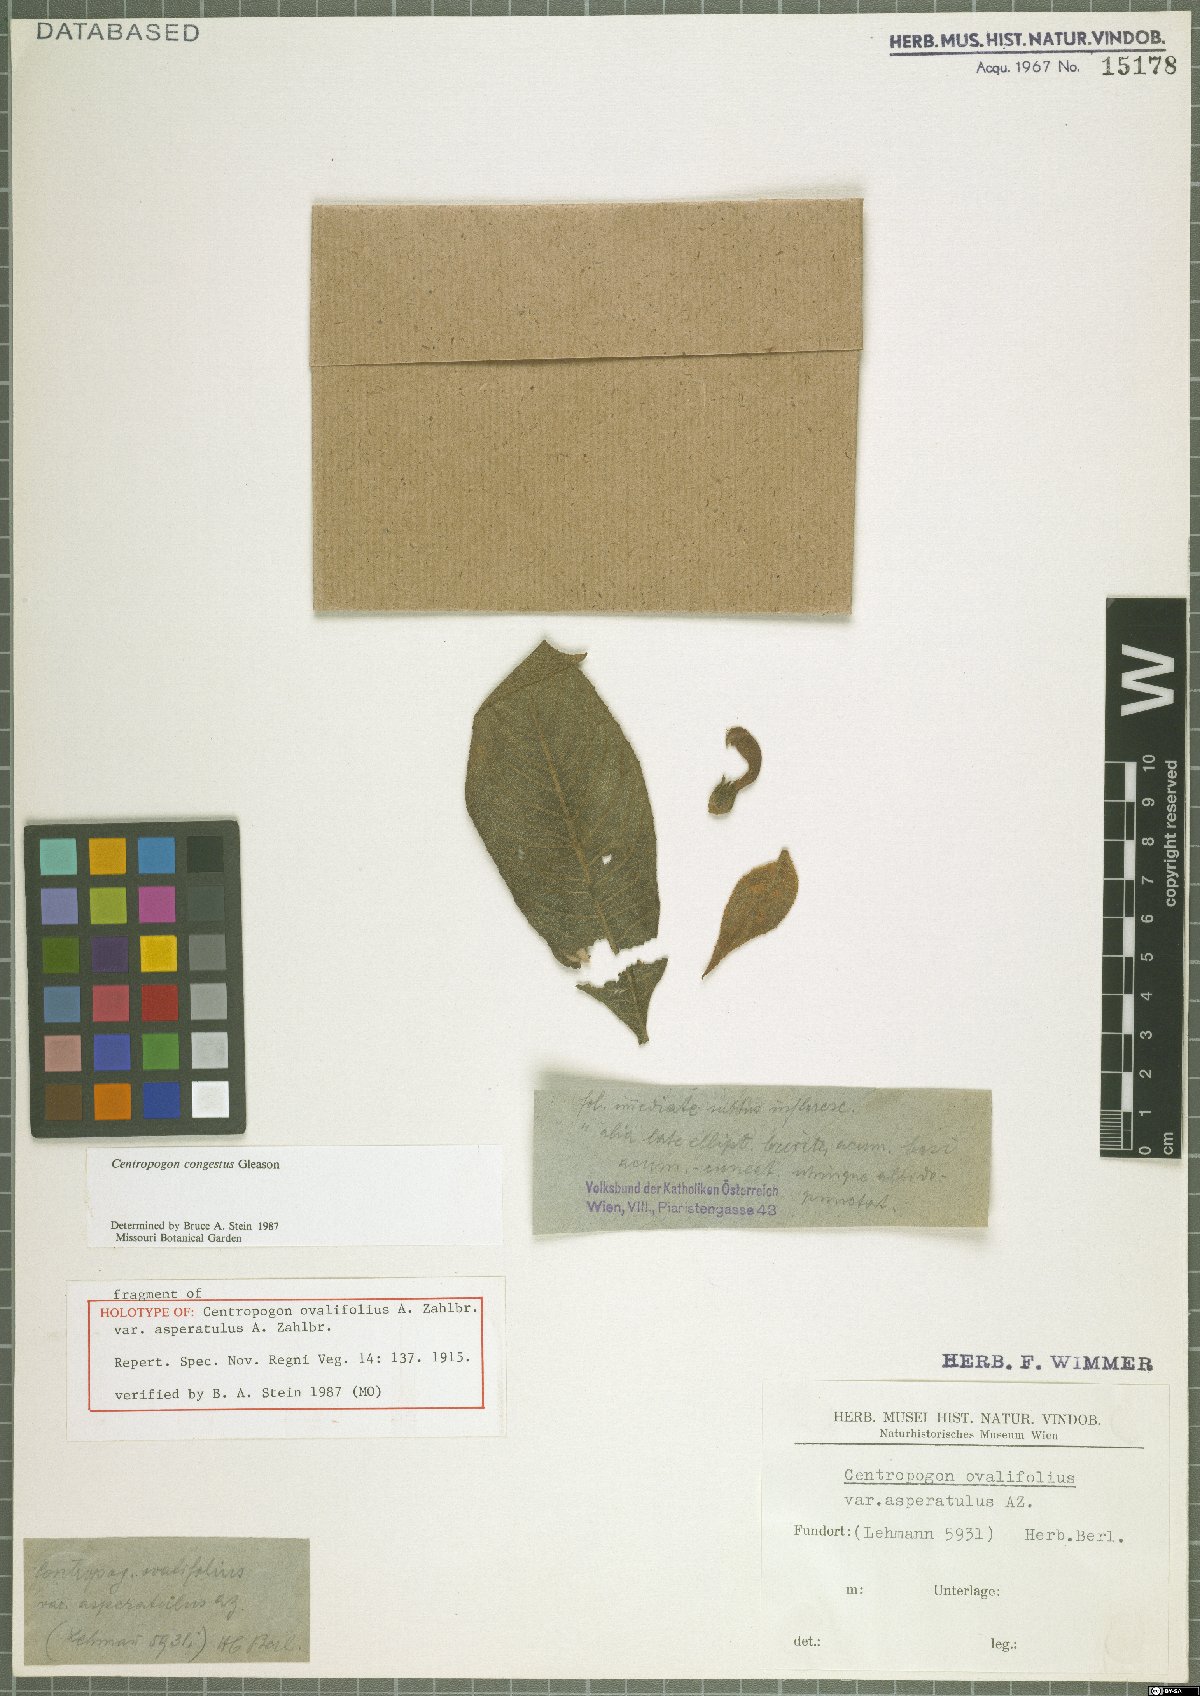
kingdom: Plantae
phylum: Tracheophyta
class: Magnoliopsida
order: Asterales
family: Campanulaceae
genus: Centropogon
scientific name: Centropogon congestus
